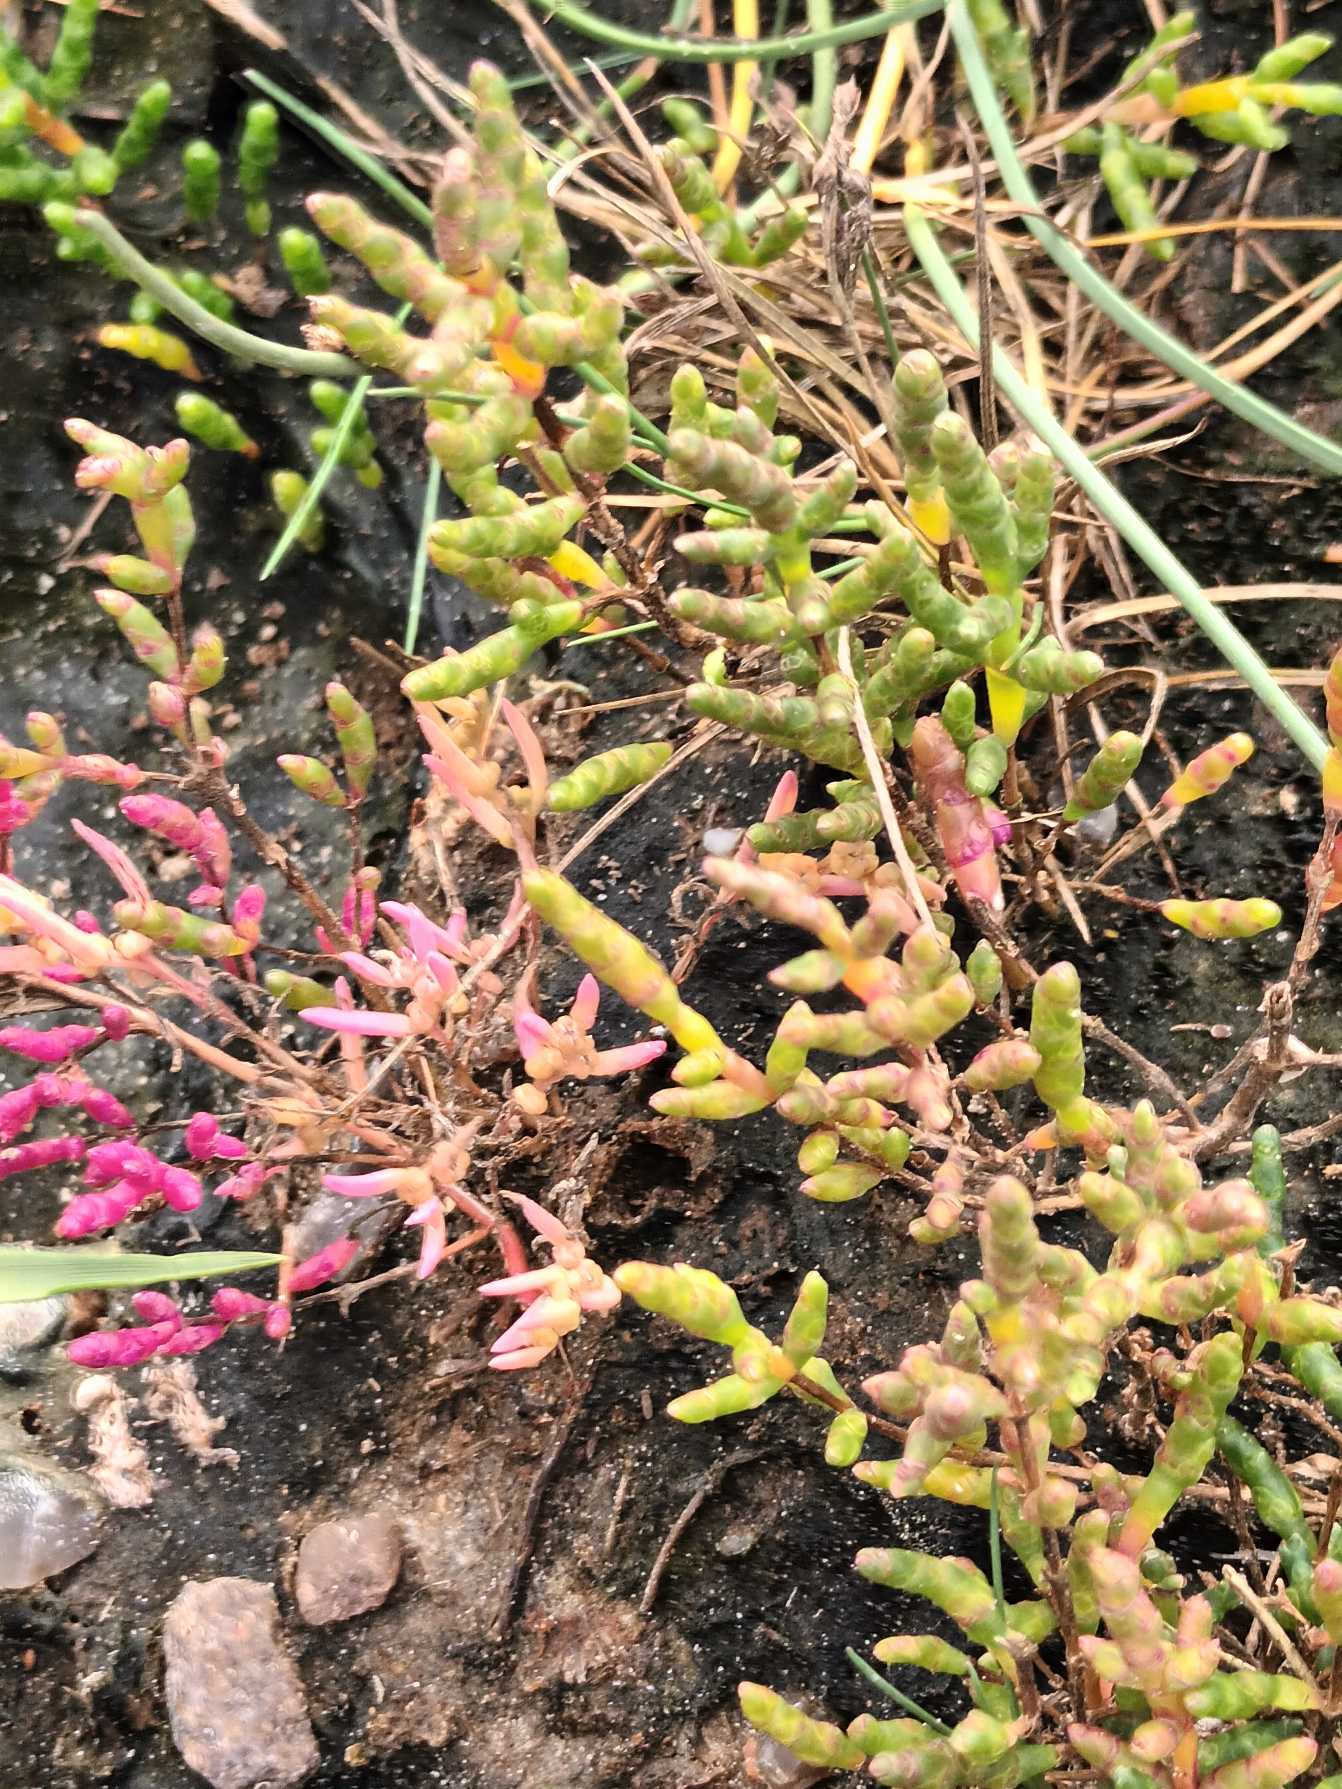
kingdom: Plantae
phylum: Tracheophyta
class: Magnoliopsida
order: Caryophyllales
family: Amaranthaceae
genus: Salicornia
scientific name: Salicornia europaea
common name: Almindelig salturt
